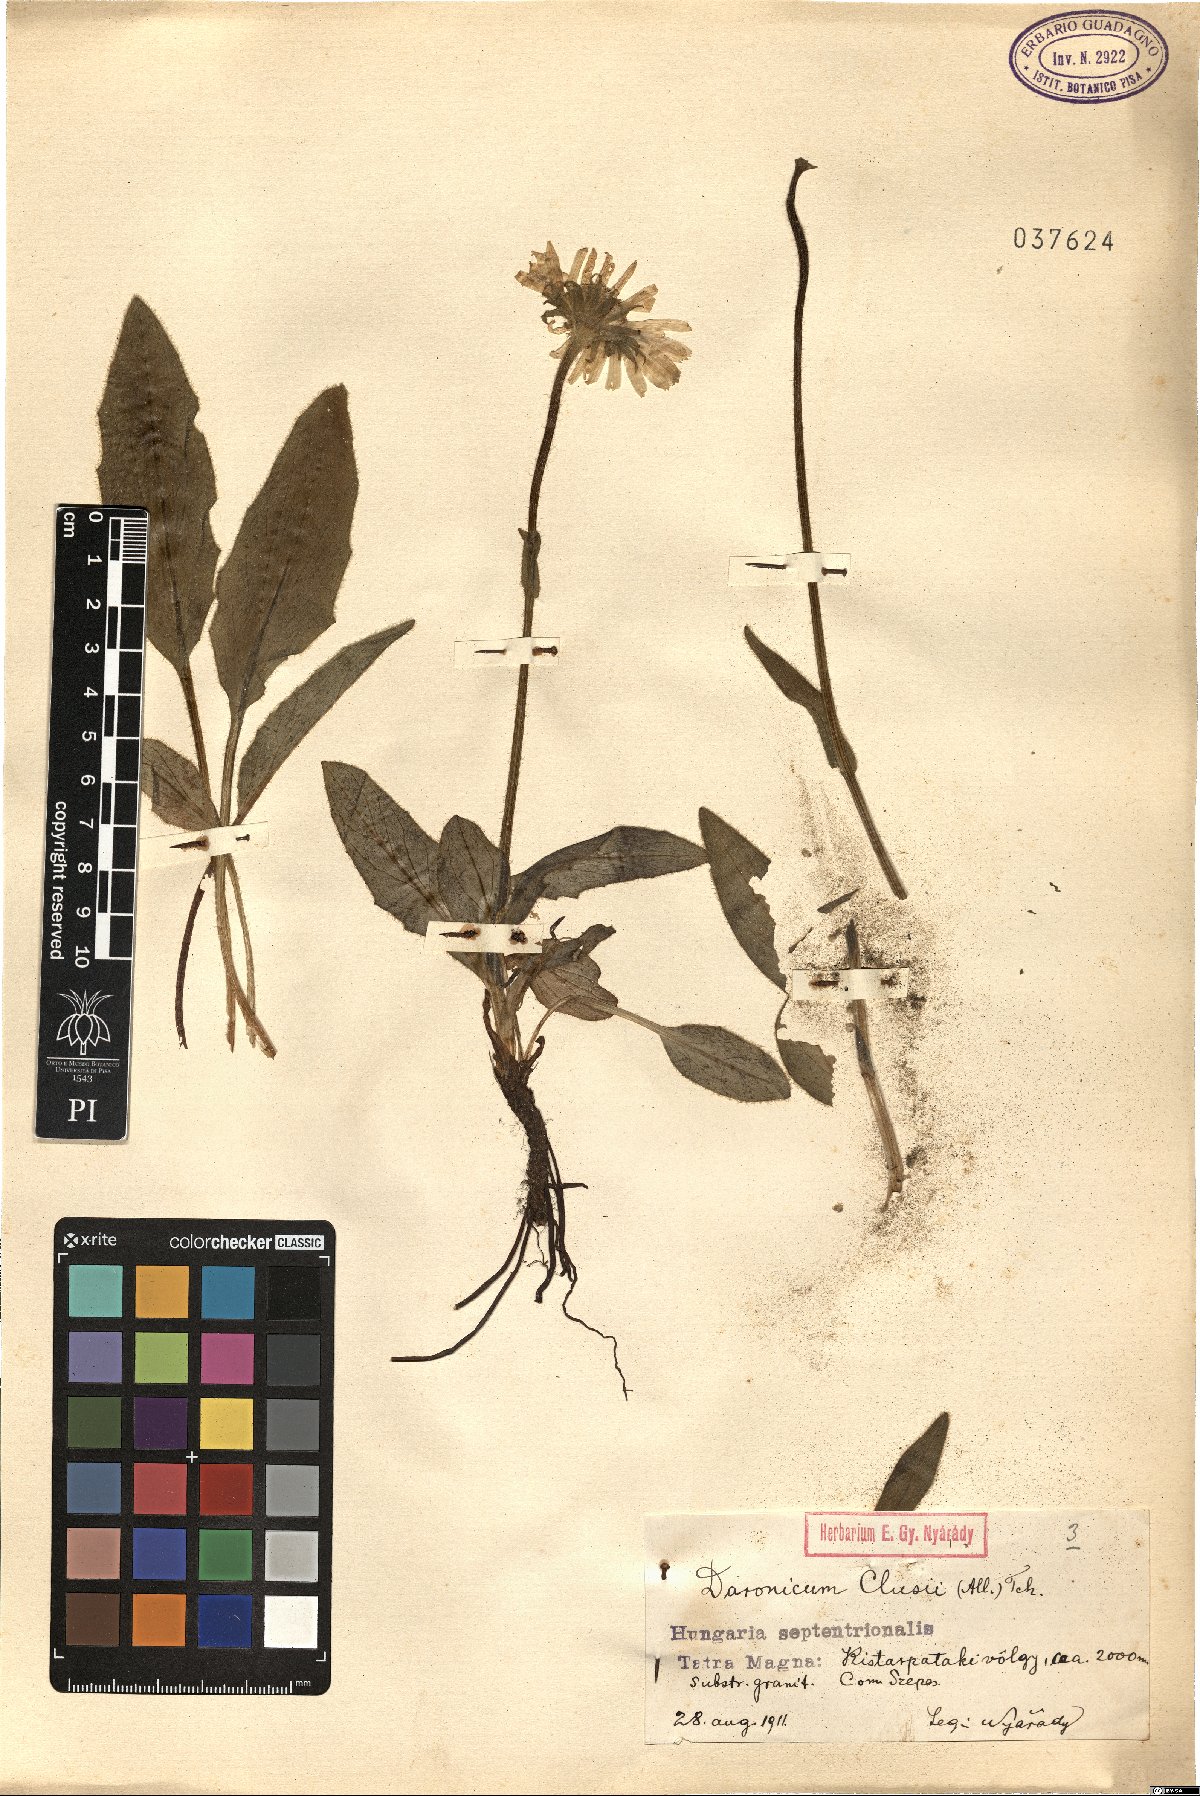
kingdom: Plantae
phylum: Tracheophyta
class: Magnoliopsida
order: Asterales
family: Asteraceae
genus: Doronicum
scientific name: Doronicum clusii
